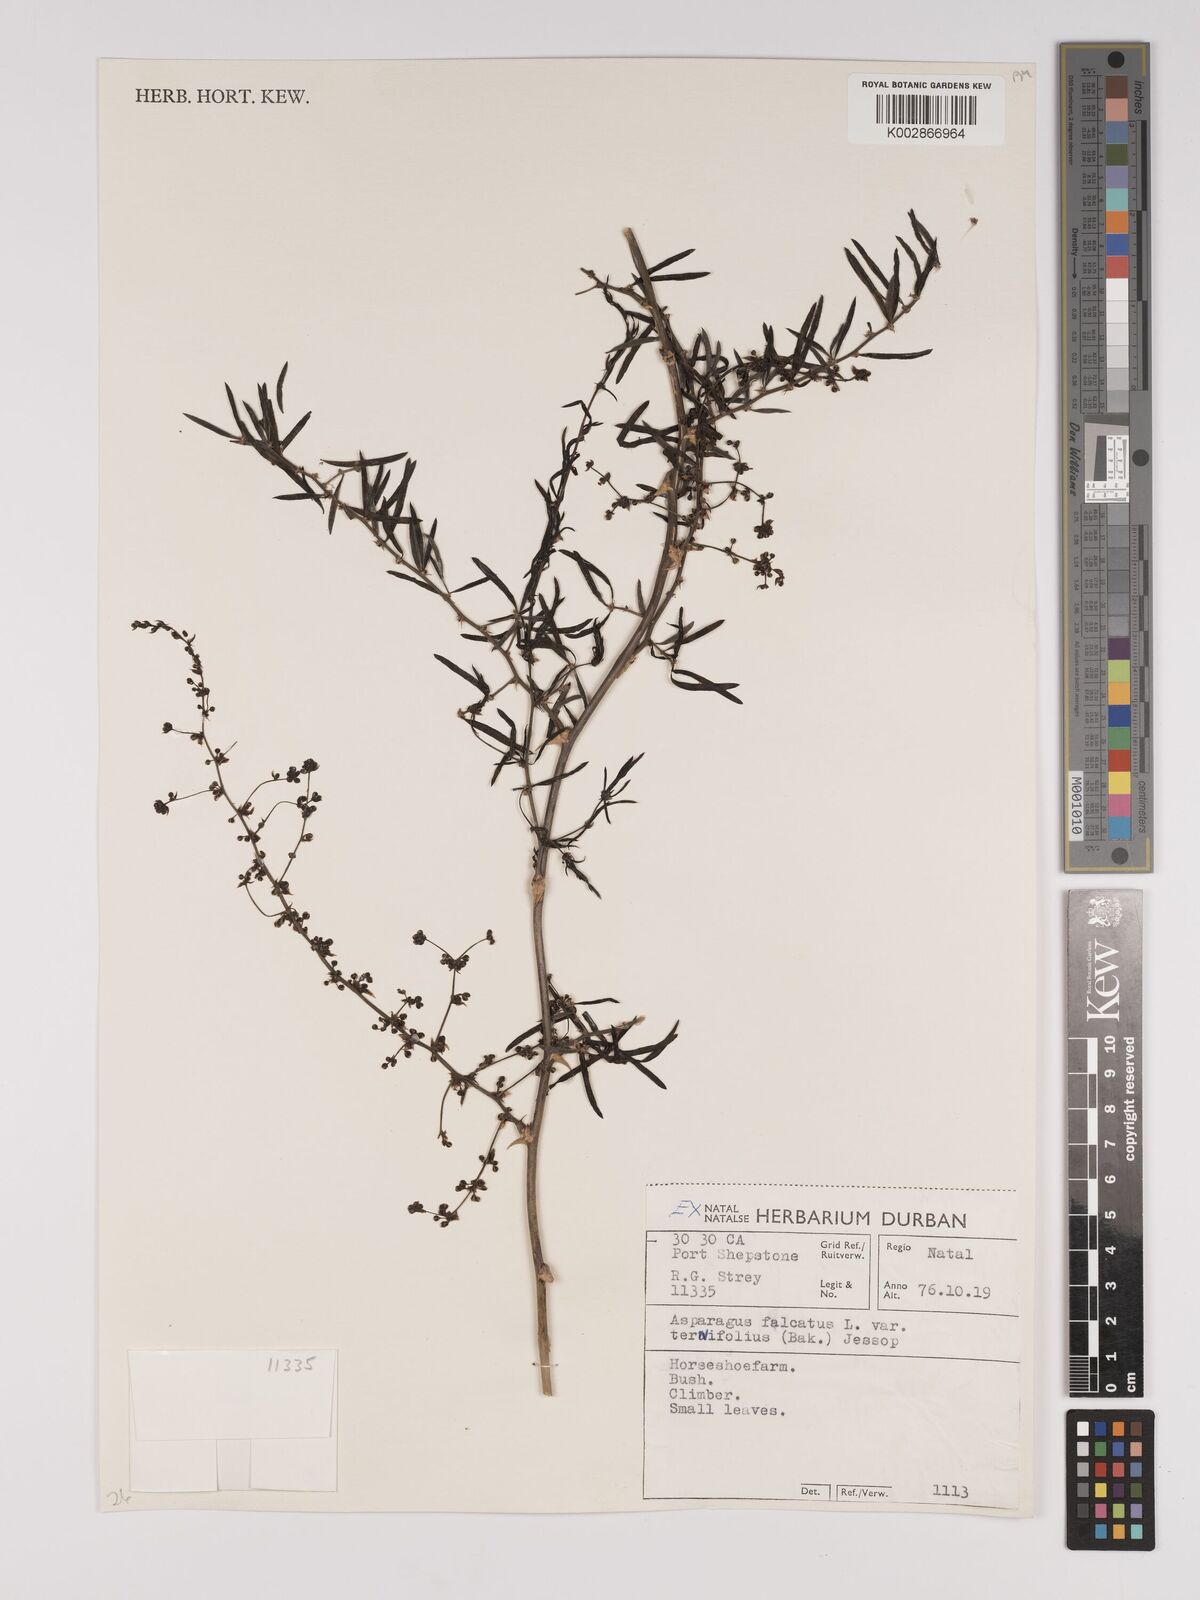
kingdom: Plantae
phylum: Tracheophyta
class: Liliopsida
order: Asparagales
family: Asparagaceae
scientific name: Asparagaceae
